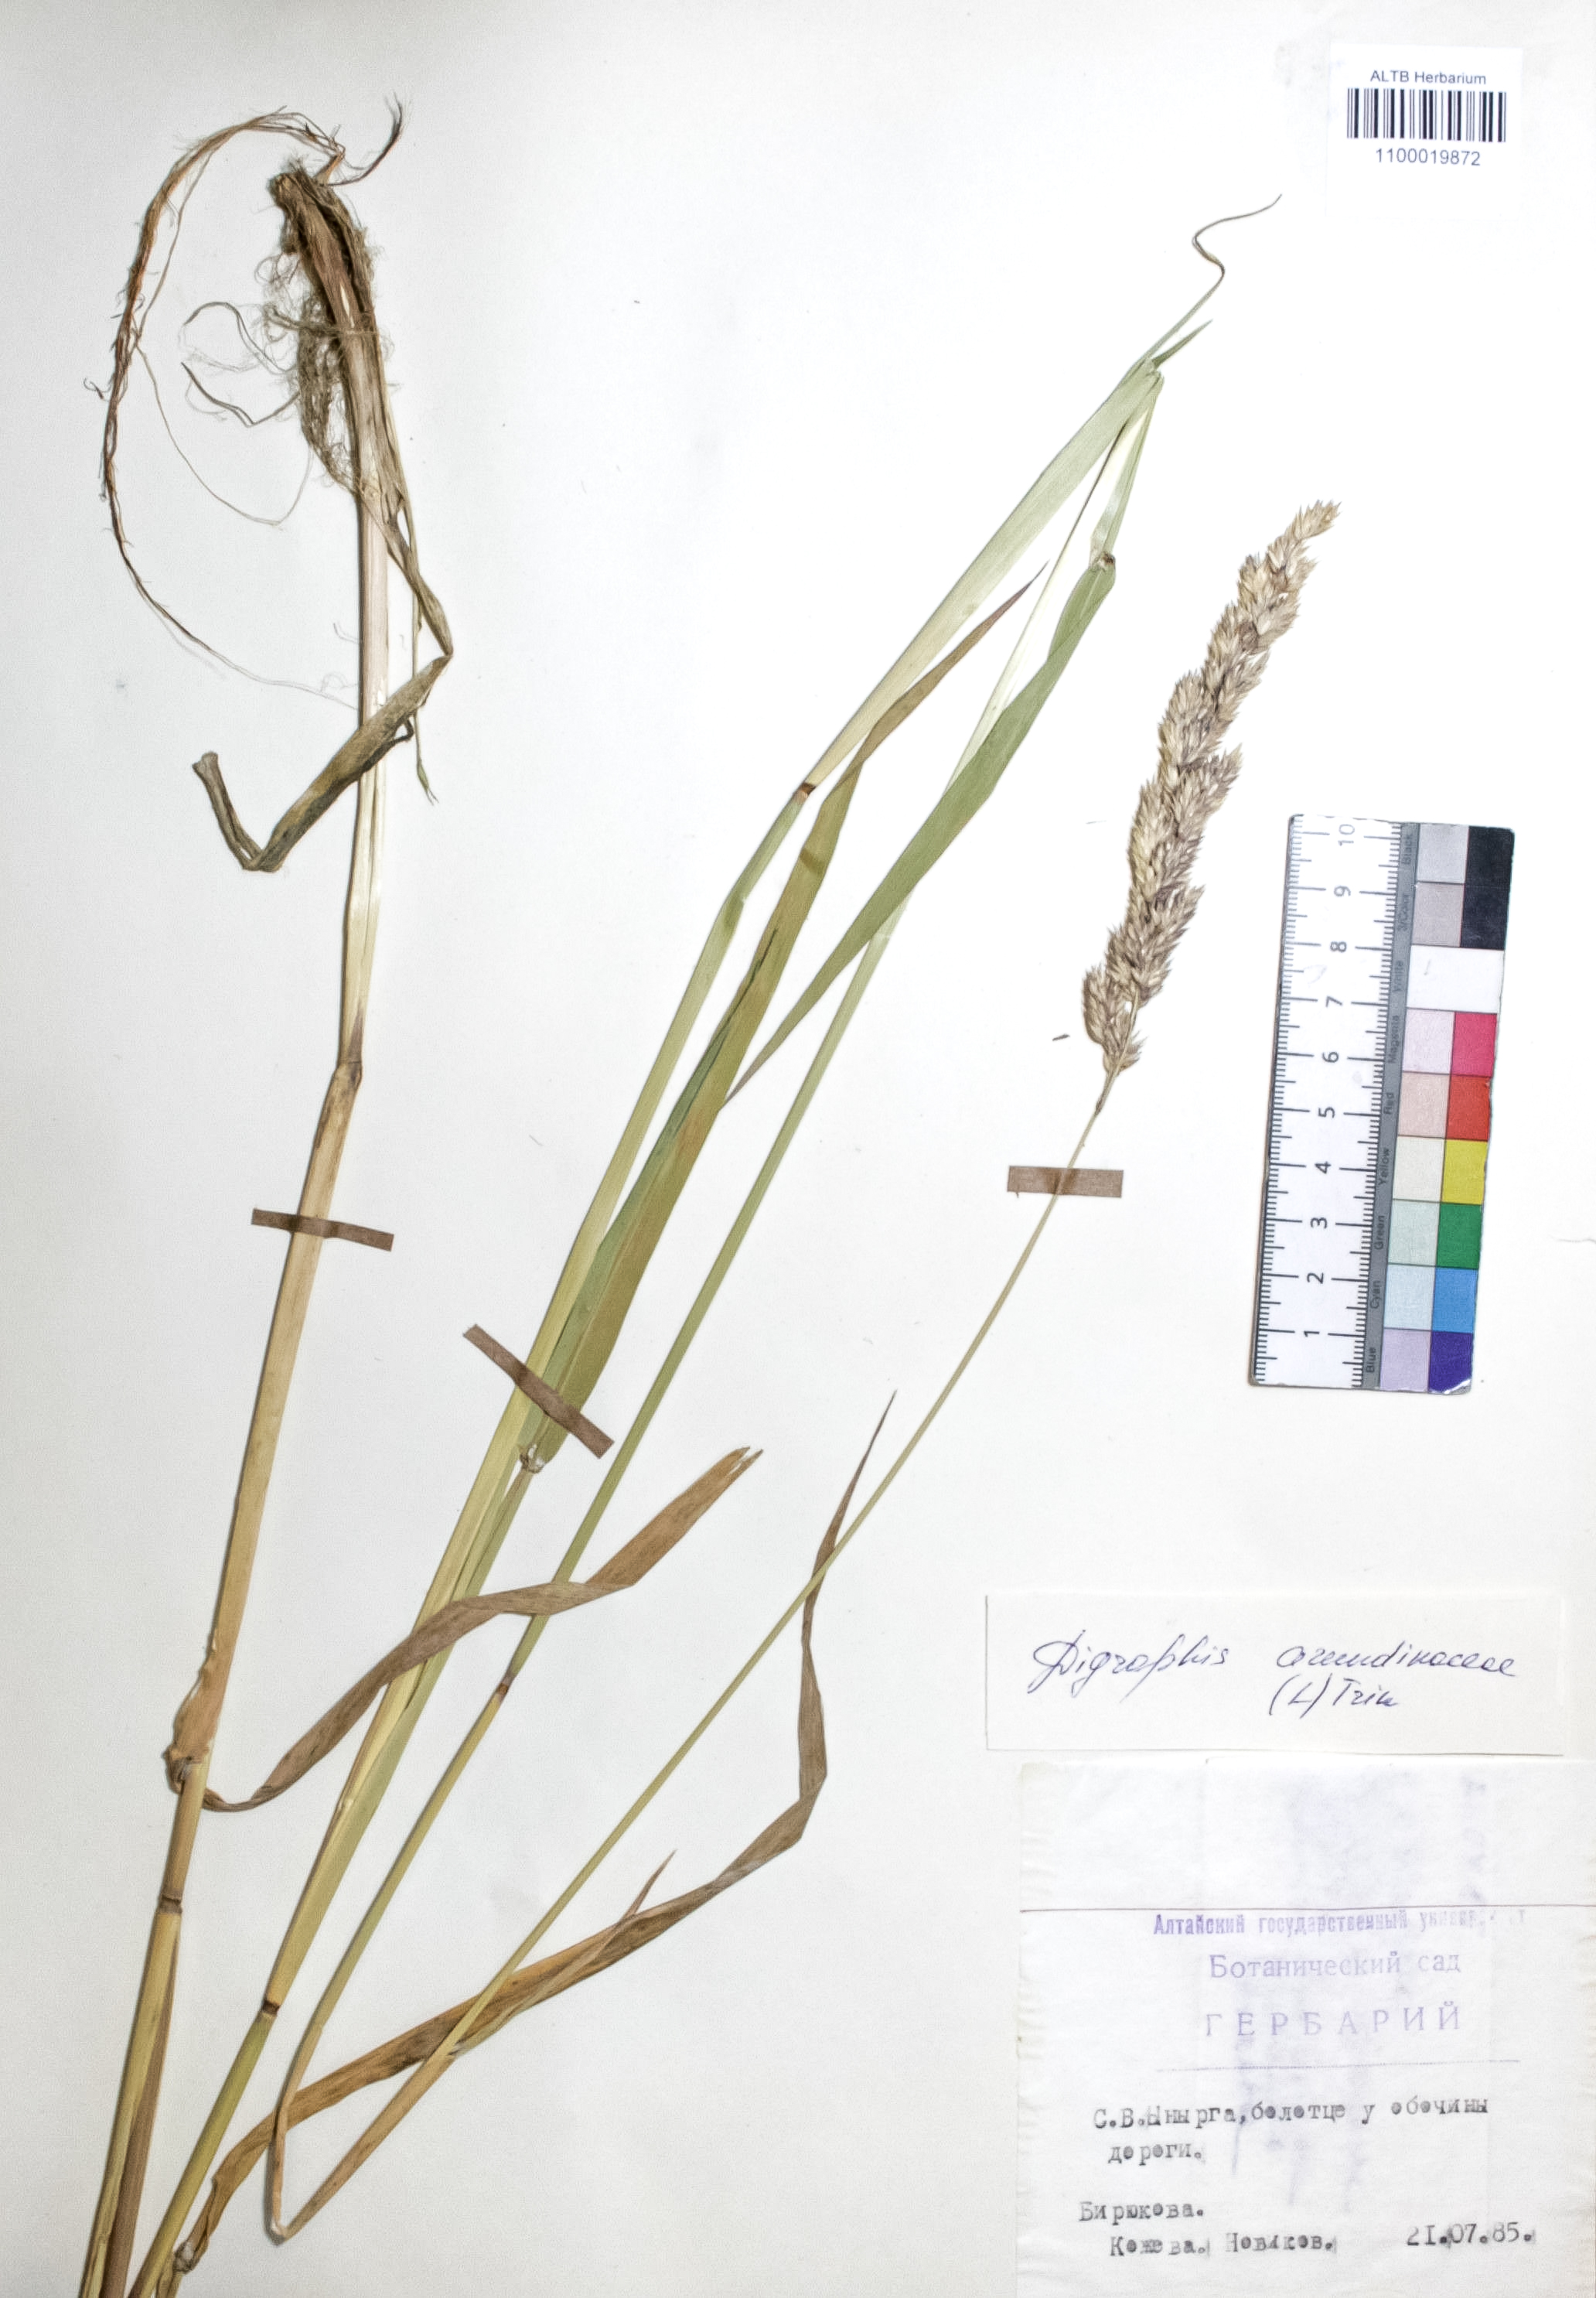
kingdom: Plantae
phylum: Tracheophyta
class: Liliopsida
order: Poales
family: Poaceae
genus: Phalaris
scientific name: Phalaris arundinacea
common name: Reed canary-grass
